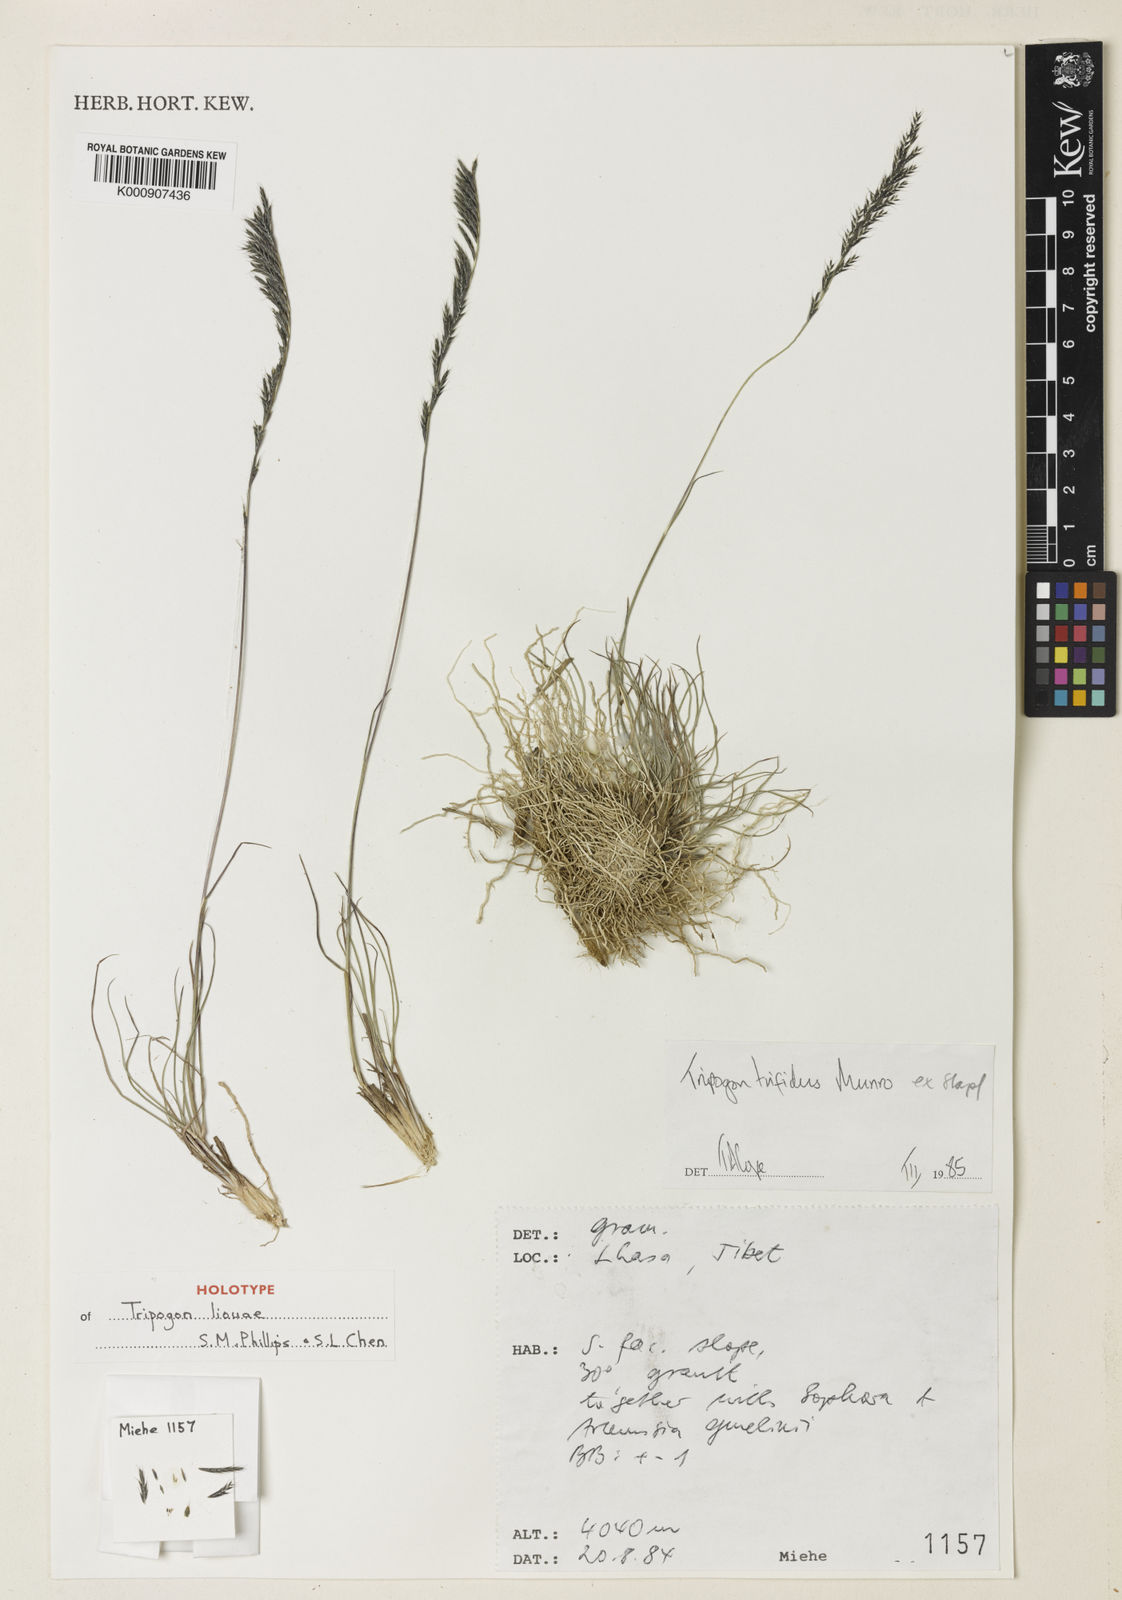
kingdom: Plantae
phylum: Tracheophyta
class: Liliopsida
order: Poales
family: Poaceae
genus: Tripogon
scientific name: Tripogon liouae
